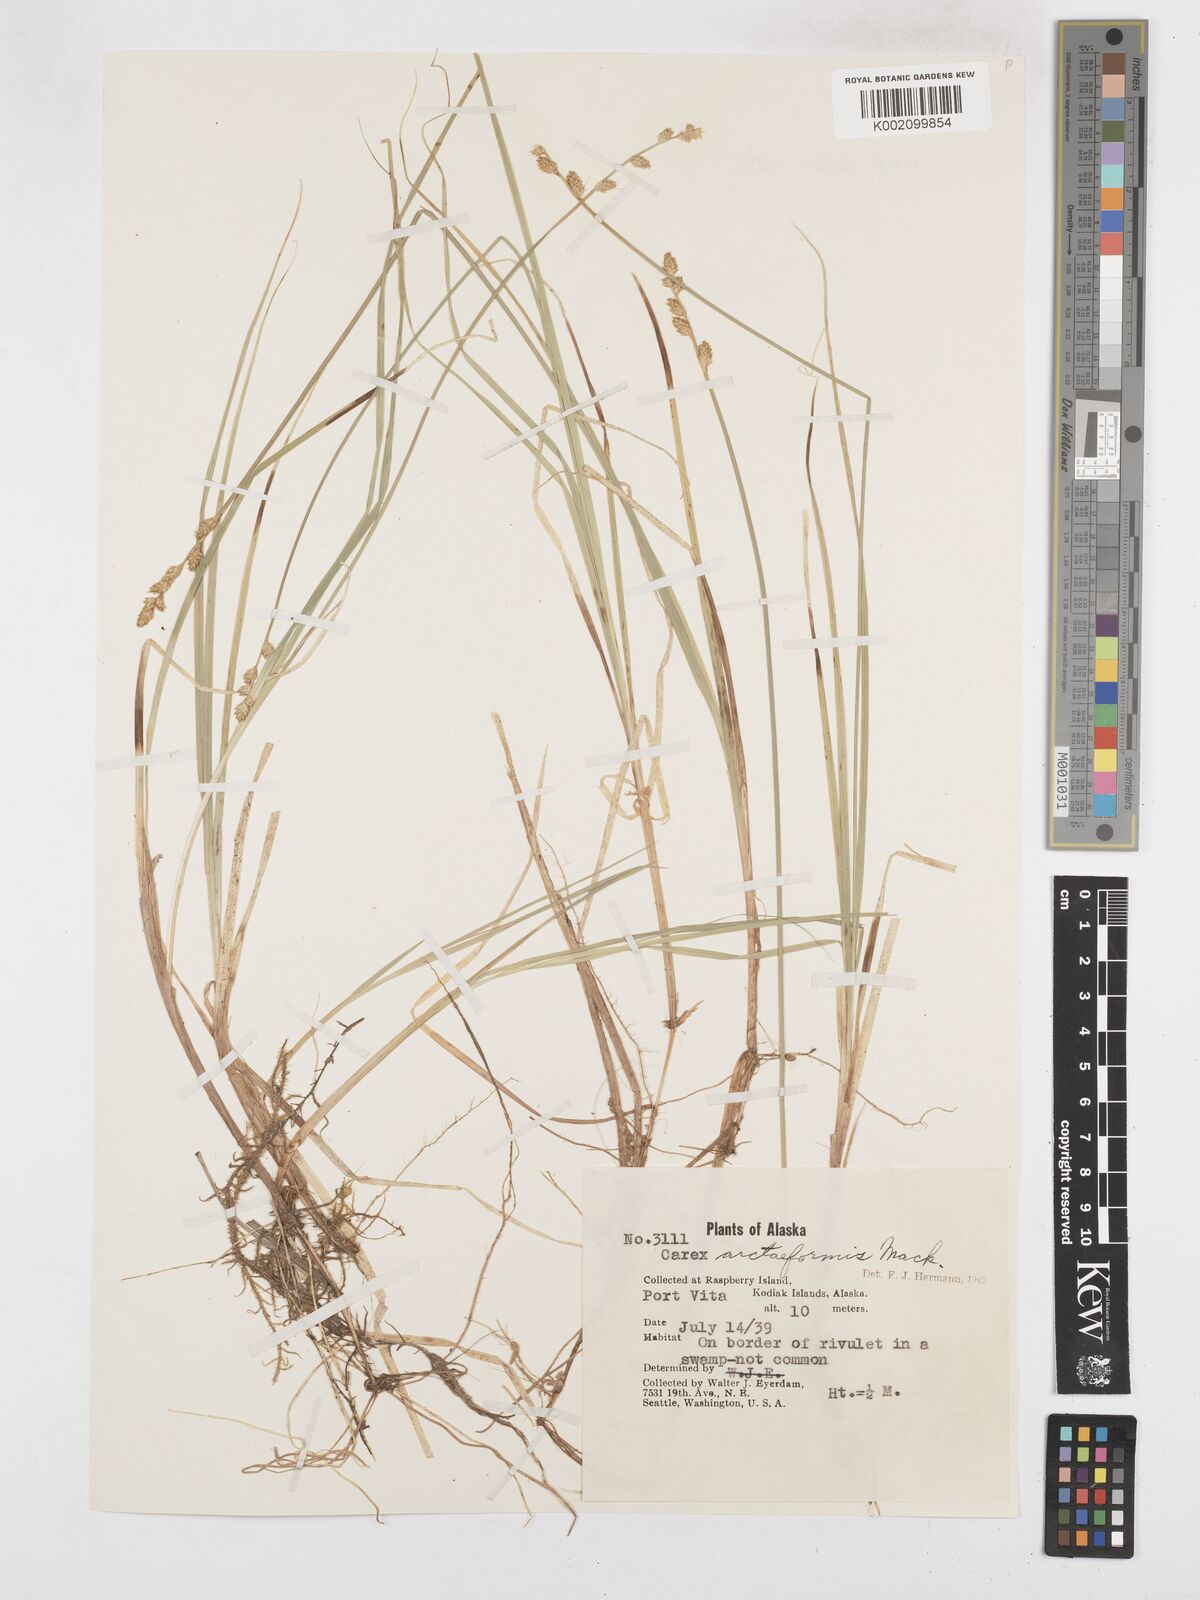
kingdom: Plantae
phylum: Tracheophyta
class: Liliopsida
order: Poales
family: Cyperaceae
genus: Carex
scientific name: Carex arctiformis
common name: Polar sedge
